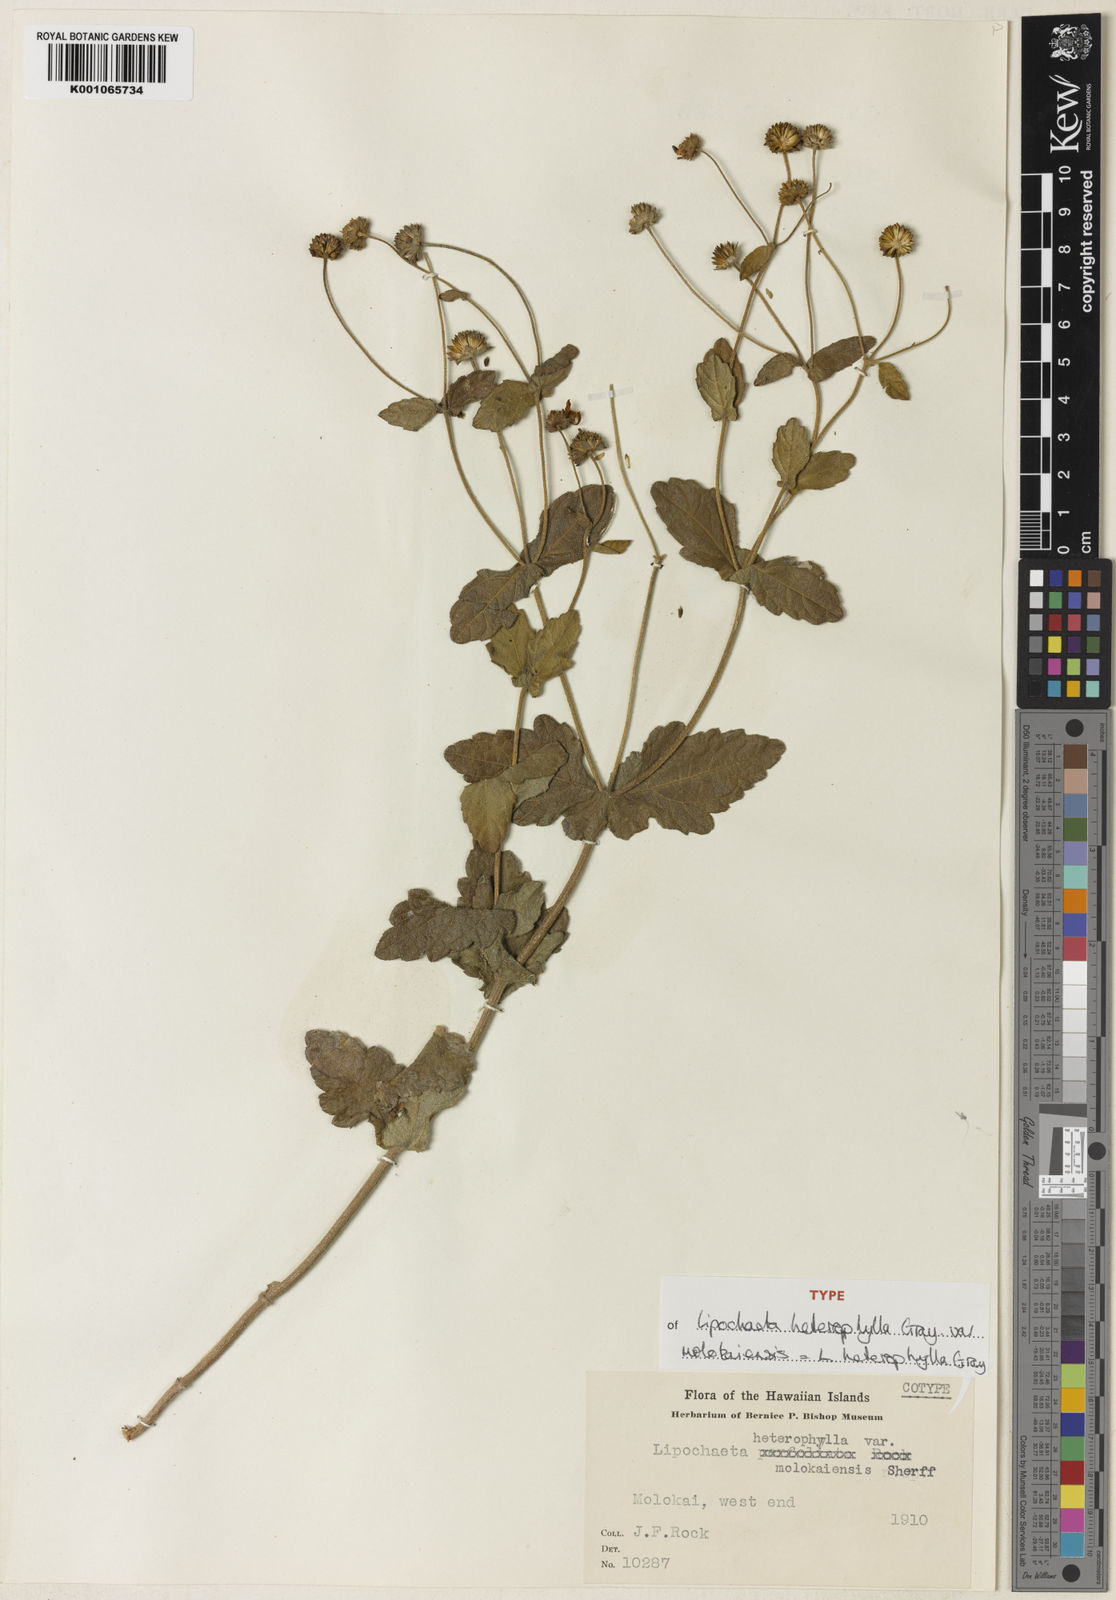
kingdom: Plantae
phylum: Tracheophyta
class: Magnoliopsida
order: Asterales
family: Asteraceae
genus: Lipochaeta
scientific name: Lipochaeta heterophylla
